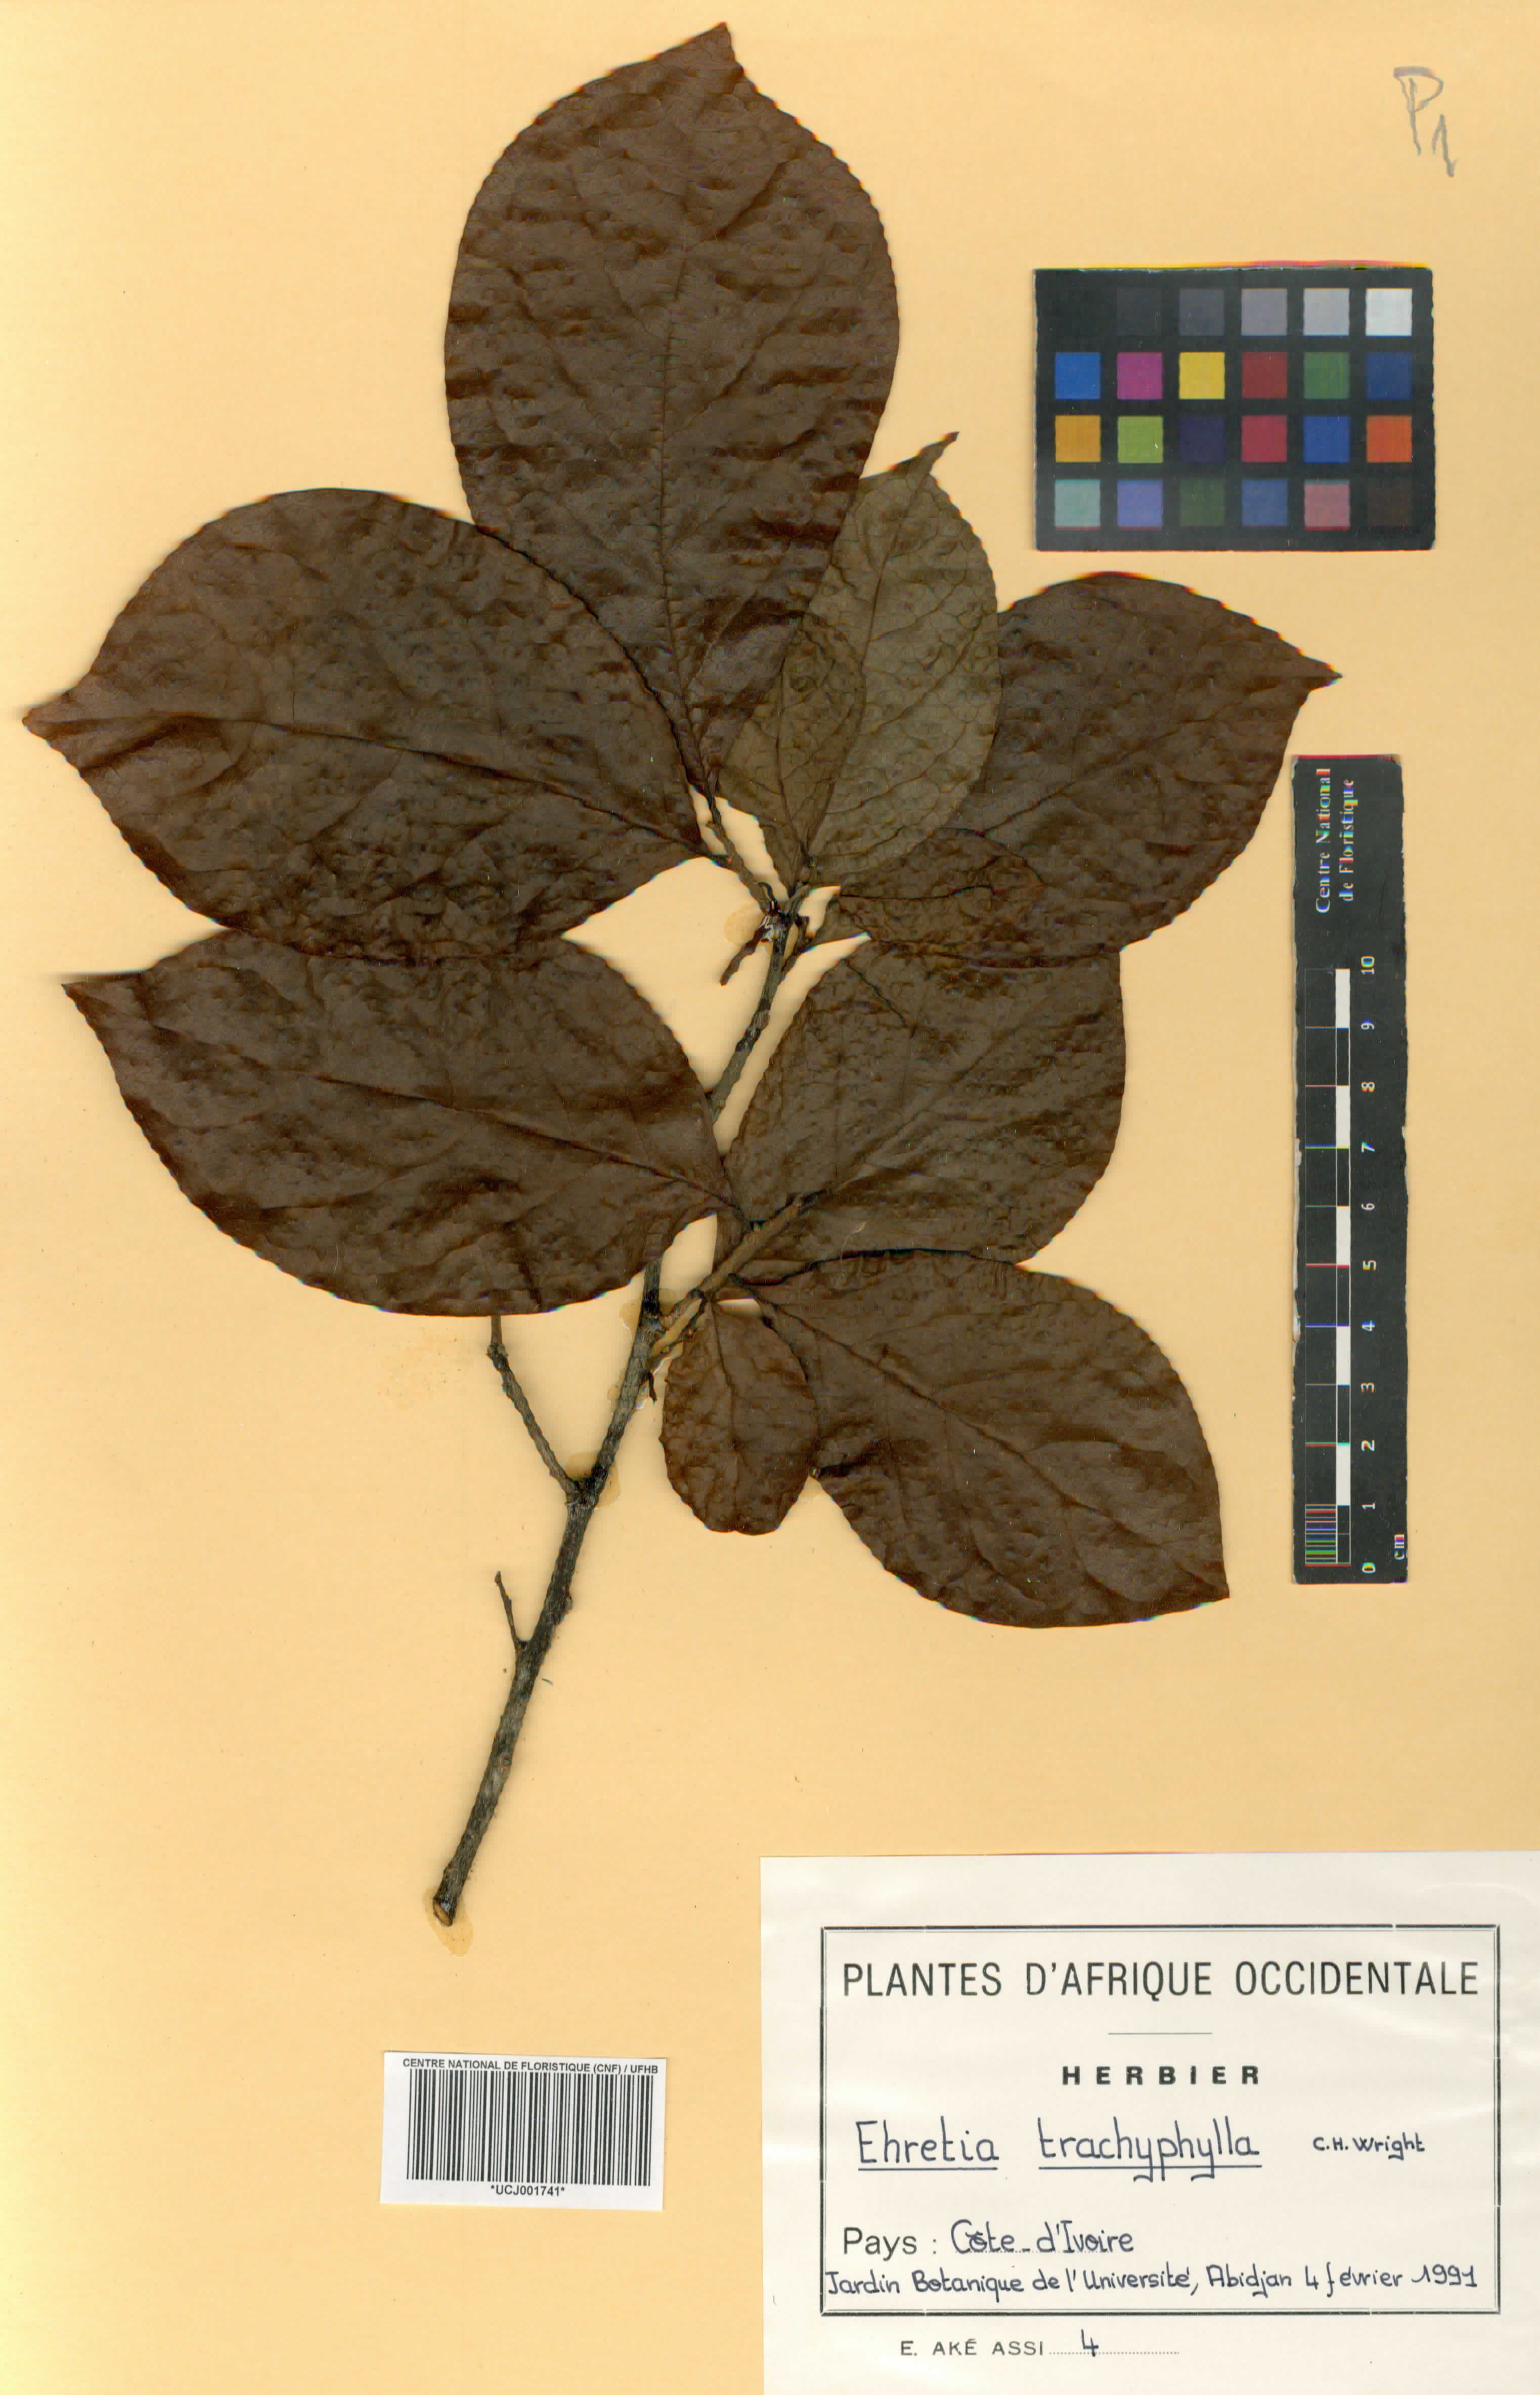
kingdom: Plantae
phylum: Tracheophyta
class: Magnoliopsida
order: Boraginales
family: Ehretiaceae
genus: Ehretia
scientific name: Ehretia trachyphylla
